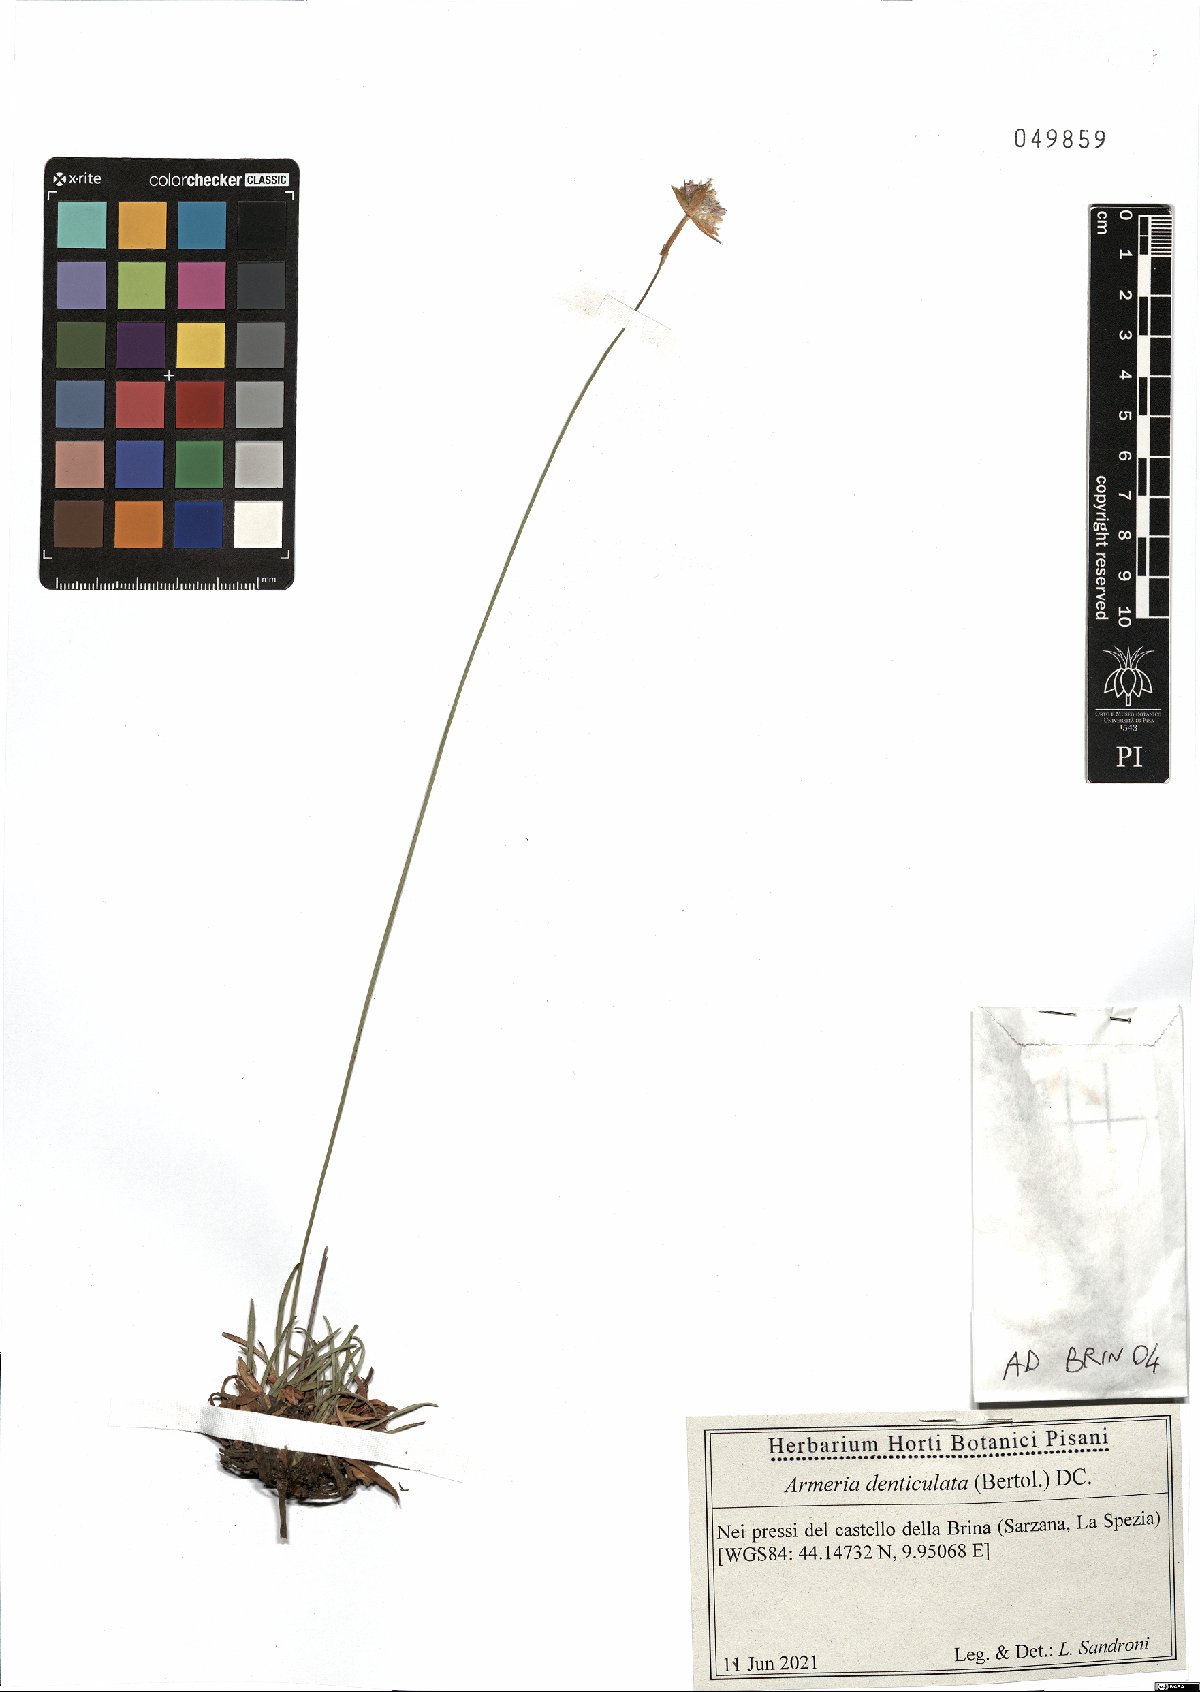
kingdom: Plantae
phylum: Tracheophyta
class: Magnoliopsida
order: Caryophyllales
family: Plumbaginaceae
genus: Armeria
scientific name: Armeria denticulata
